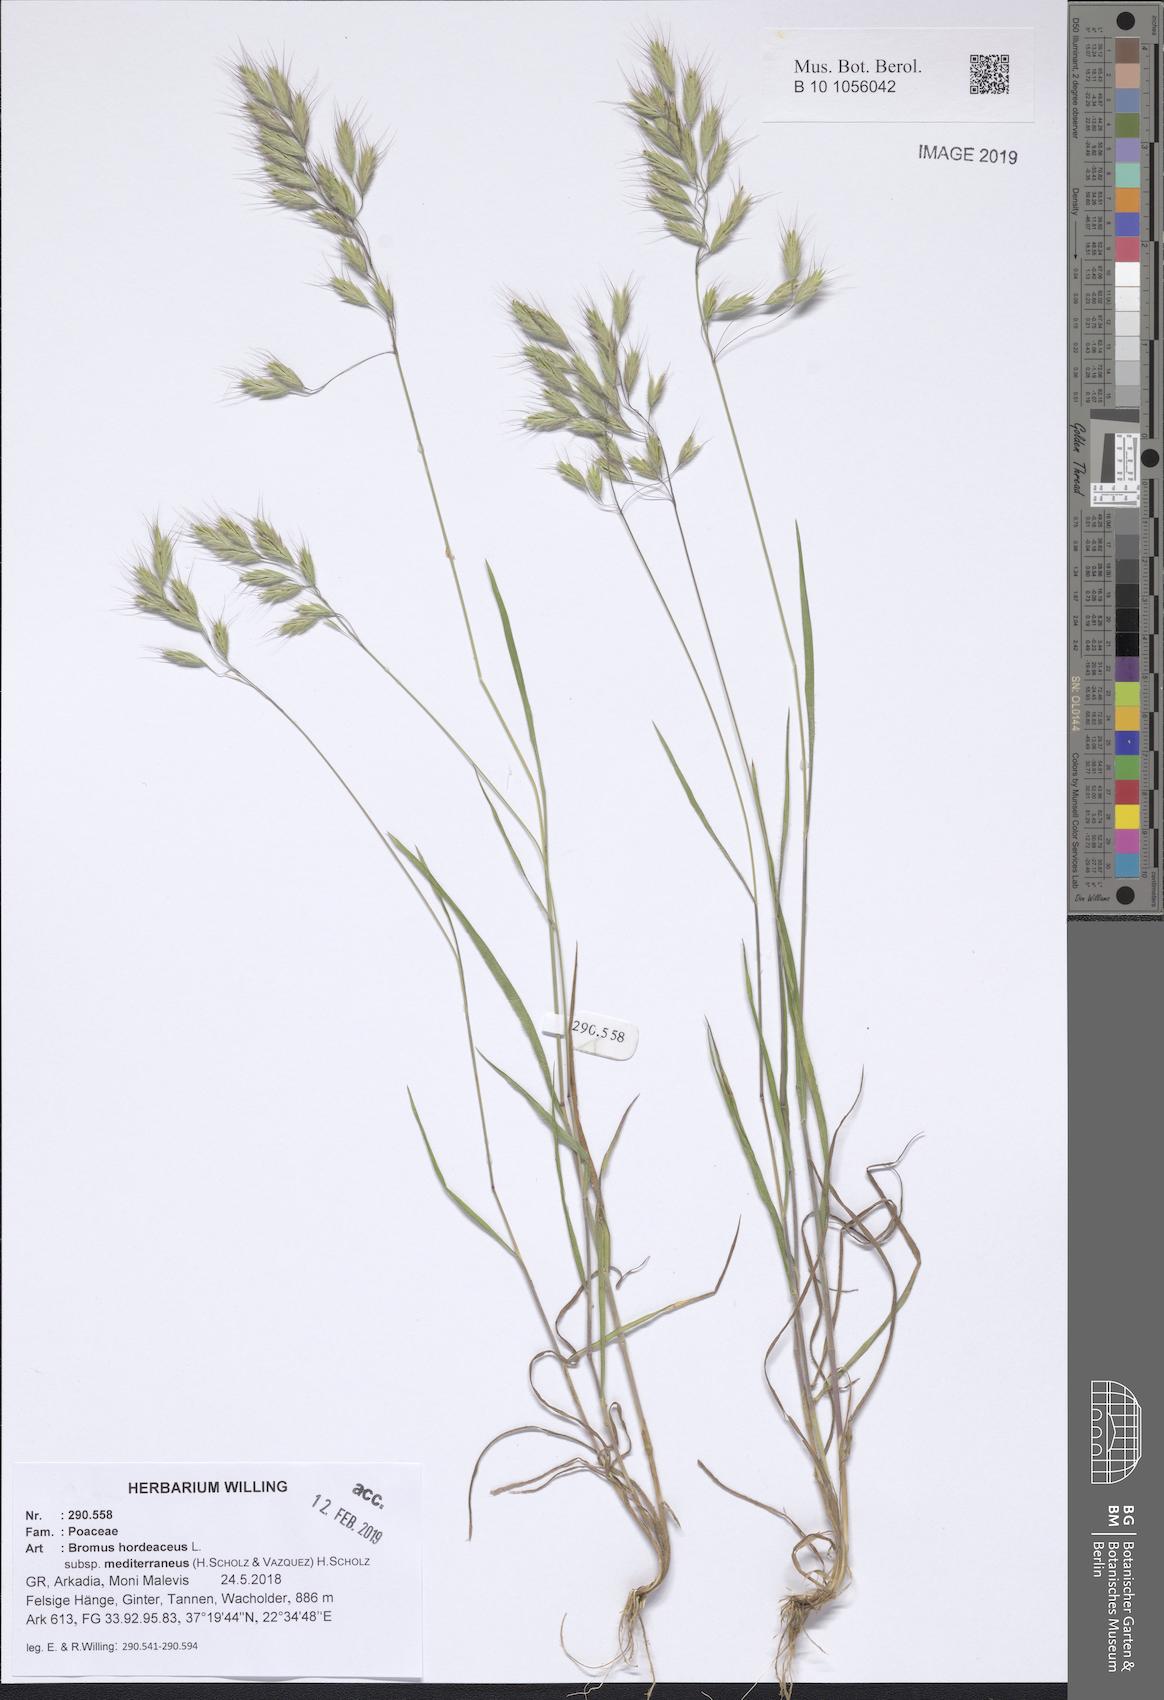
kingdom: Plantae
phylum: Tracheophyta
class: Liliopsida
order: Poales
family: Poaceae
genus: Bromus
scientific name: Bromus hordeaceus
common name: Soft brome
